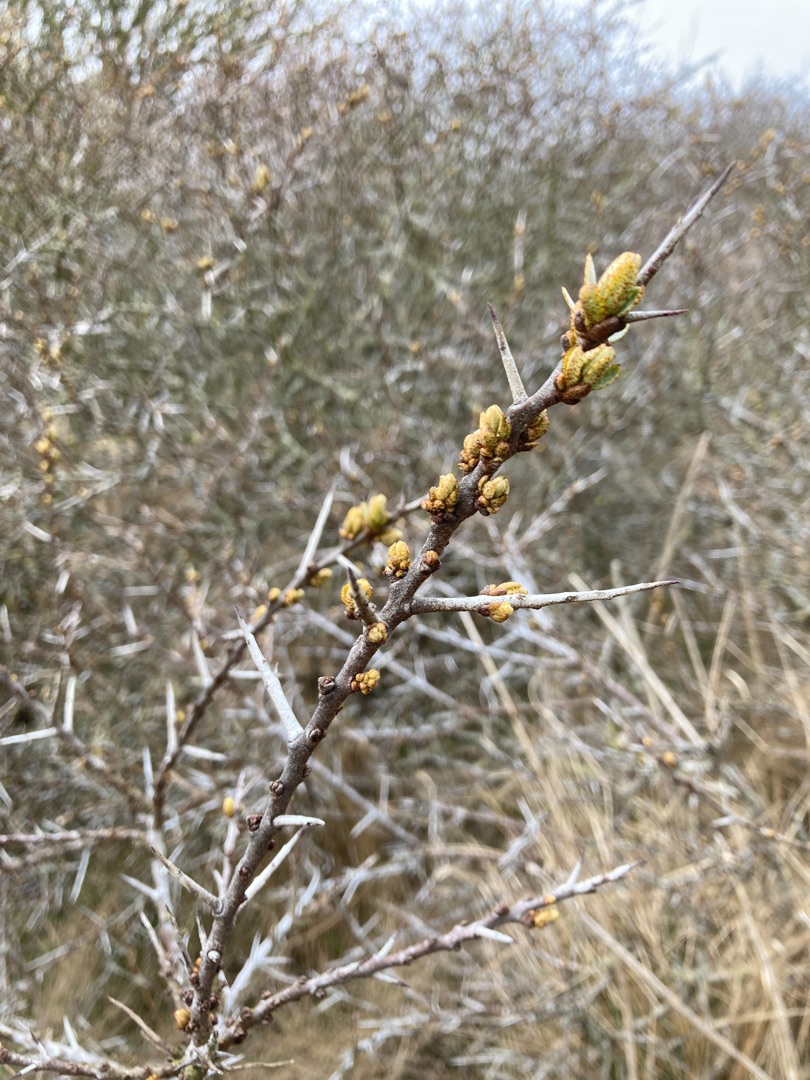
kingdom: Plantae
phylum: Tracheophyta
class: Magnoliopsida
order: Rosales
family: Elaeagnaceae
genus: Hippophae
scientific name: Hippophae rhamnoides
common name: Havtorn
